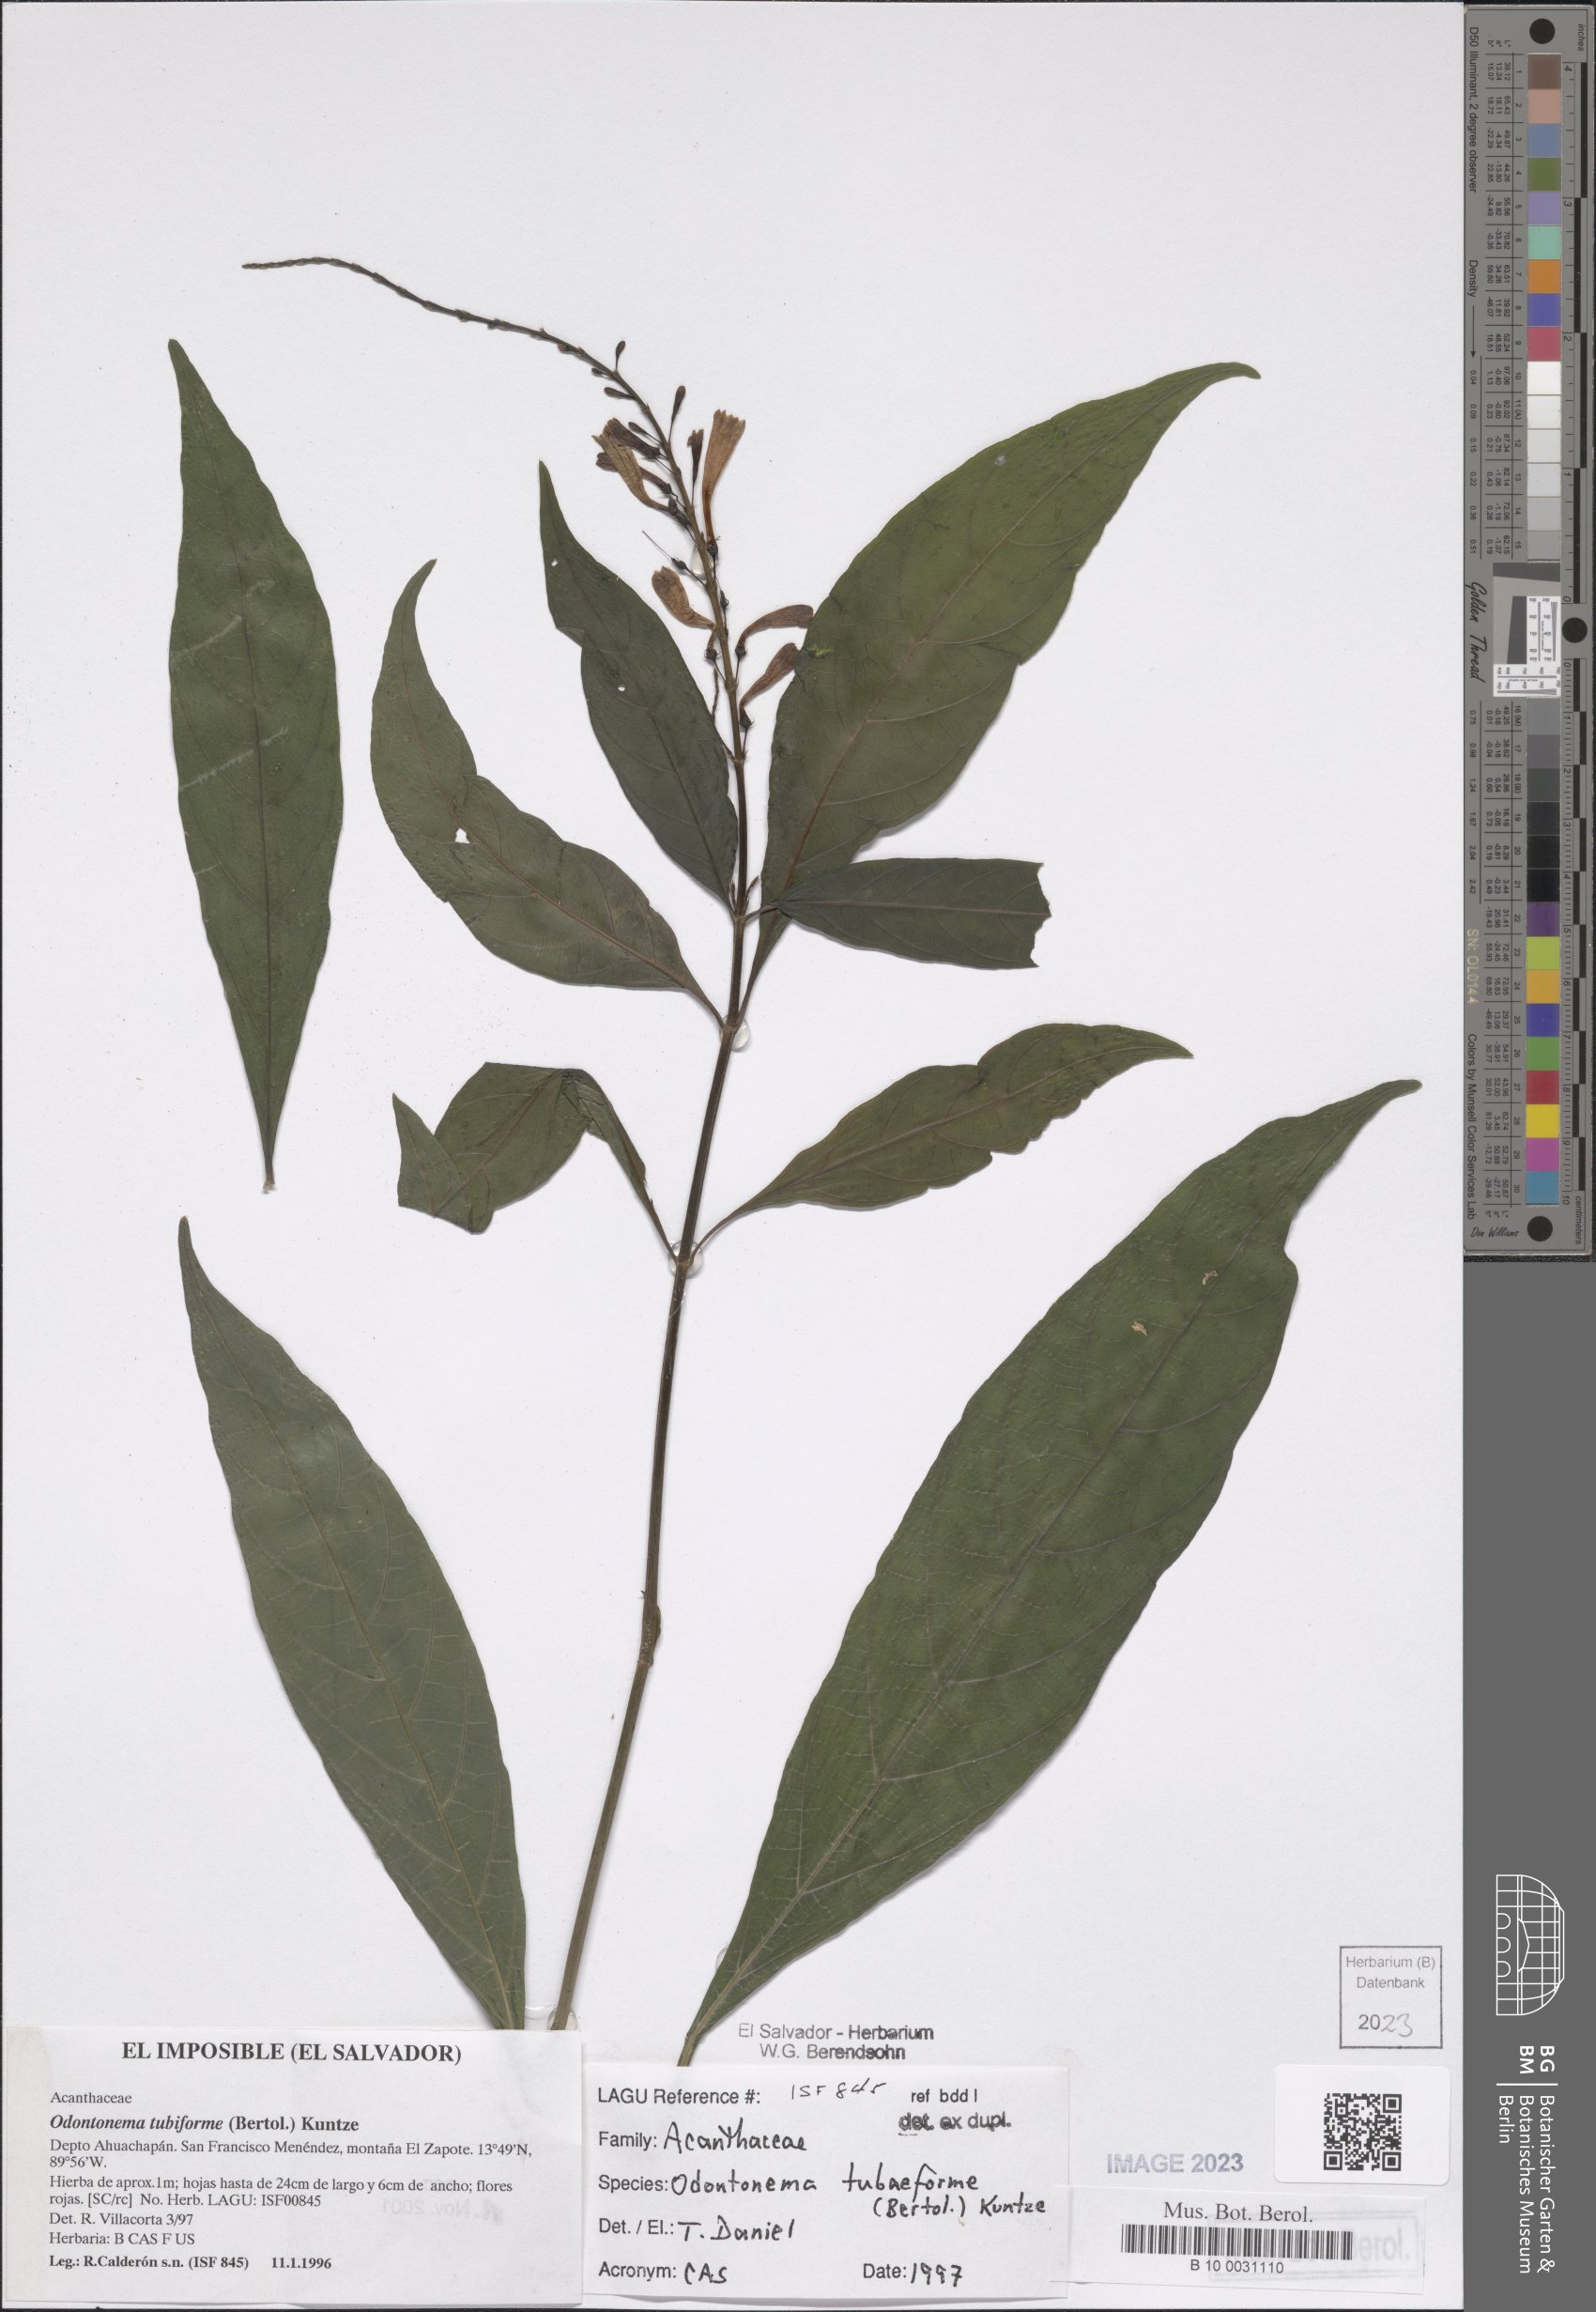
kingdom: Plantae
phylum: Tracheophyta
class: Magnoliopsida
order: Lamiales
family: Acanthaceae
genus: Odontonema
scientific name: Odontonema tubaeforme
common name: Firespike
